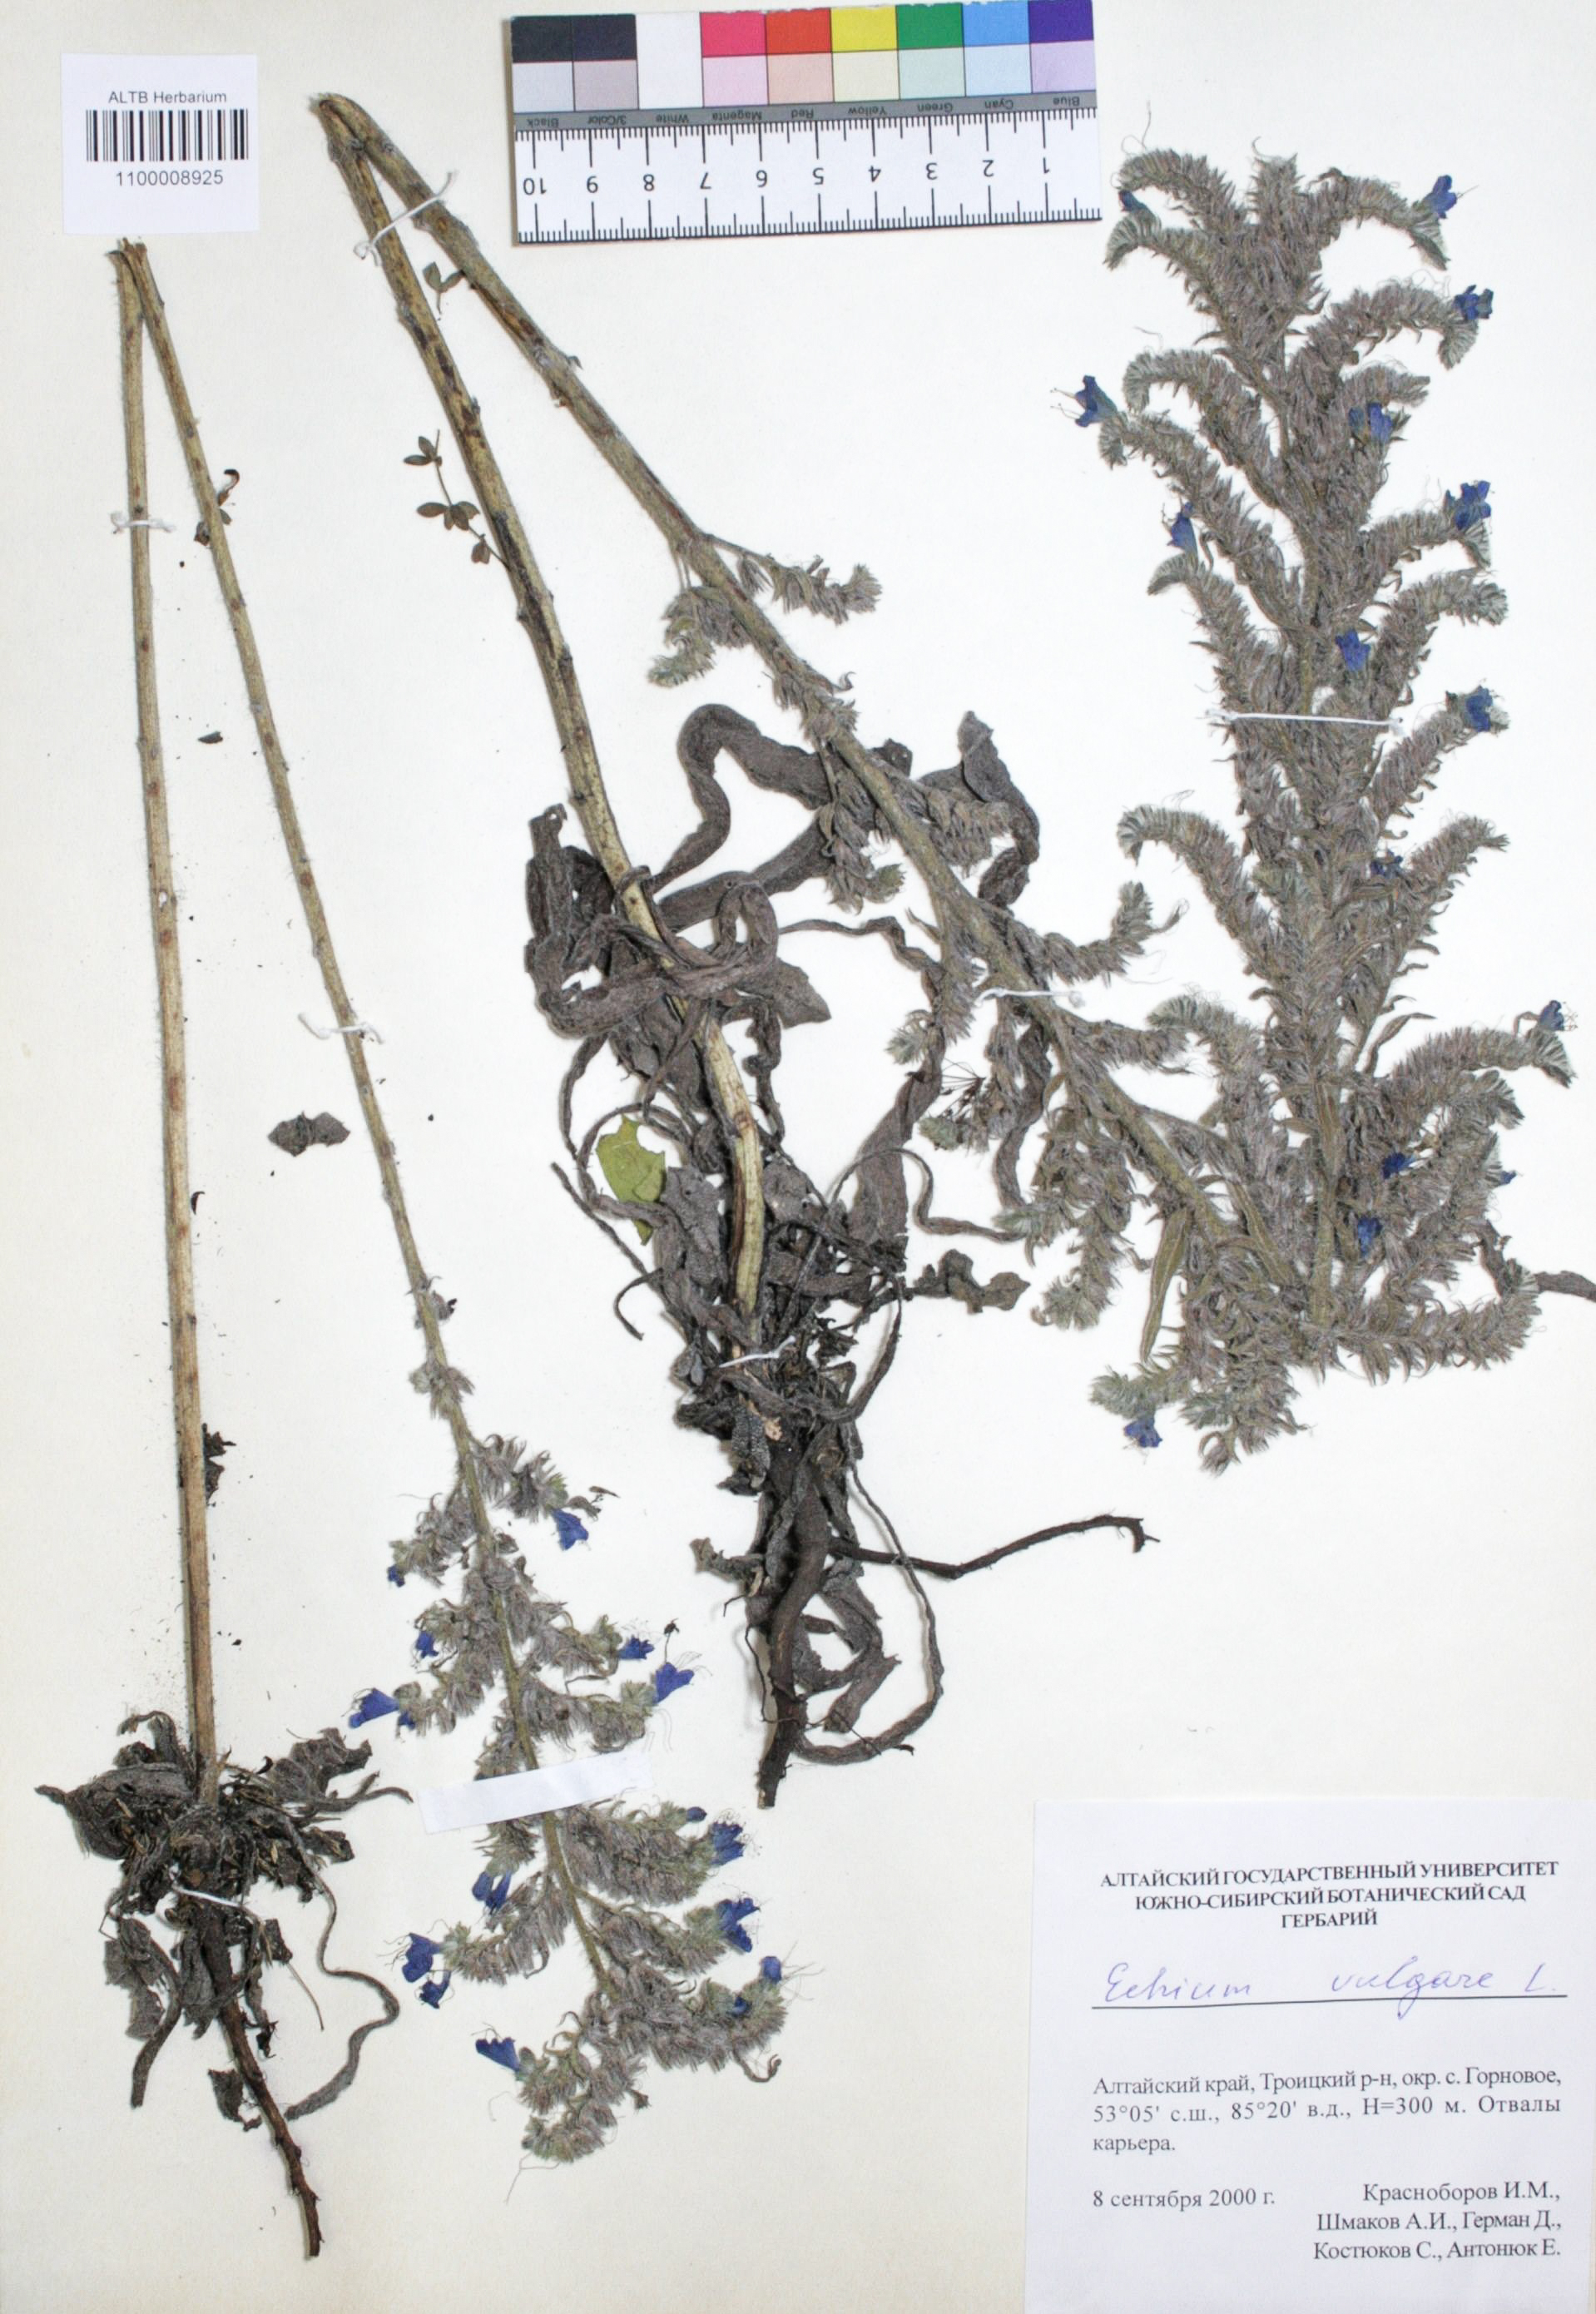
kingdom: Plantae
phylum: Tracheophyta
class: Magnoliopsida
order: Boraginales
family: Boraginaceae
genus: Echium
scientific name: Echium vulgare
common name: Common viper's bugloss
